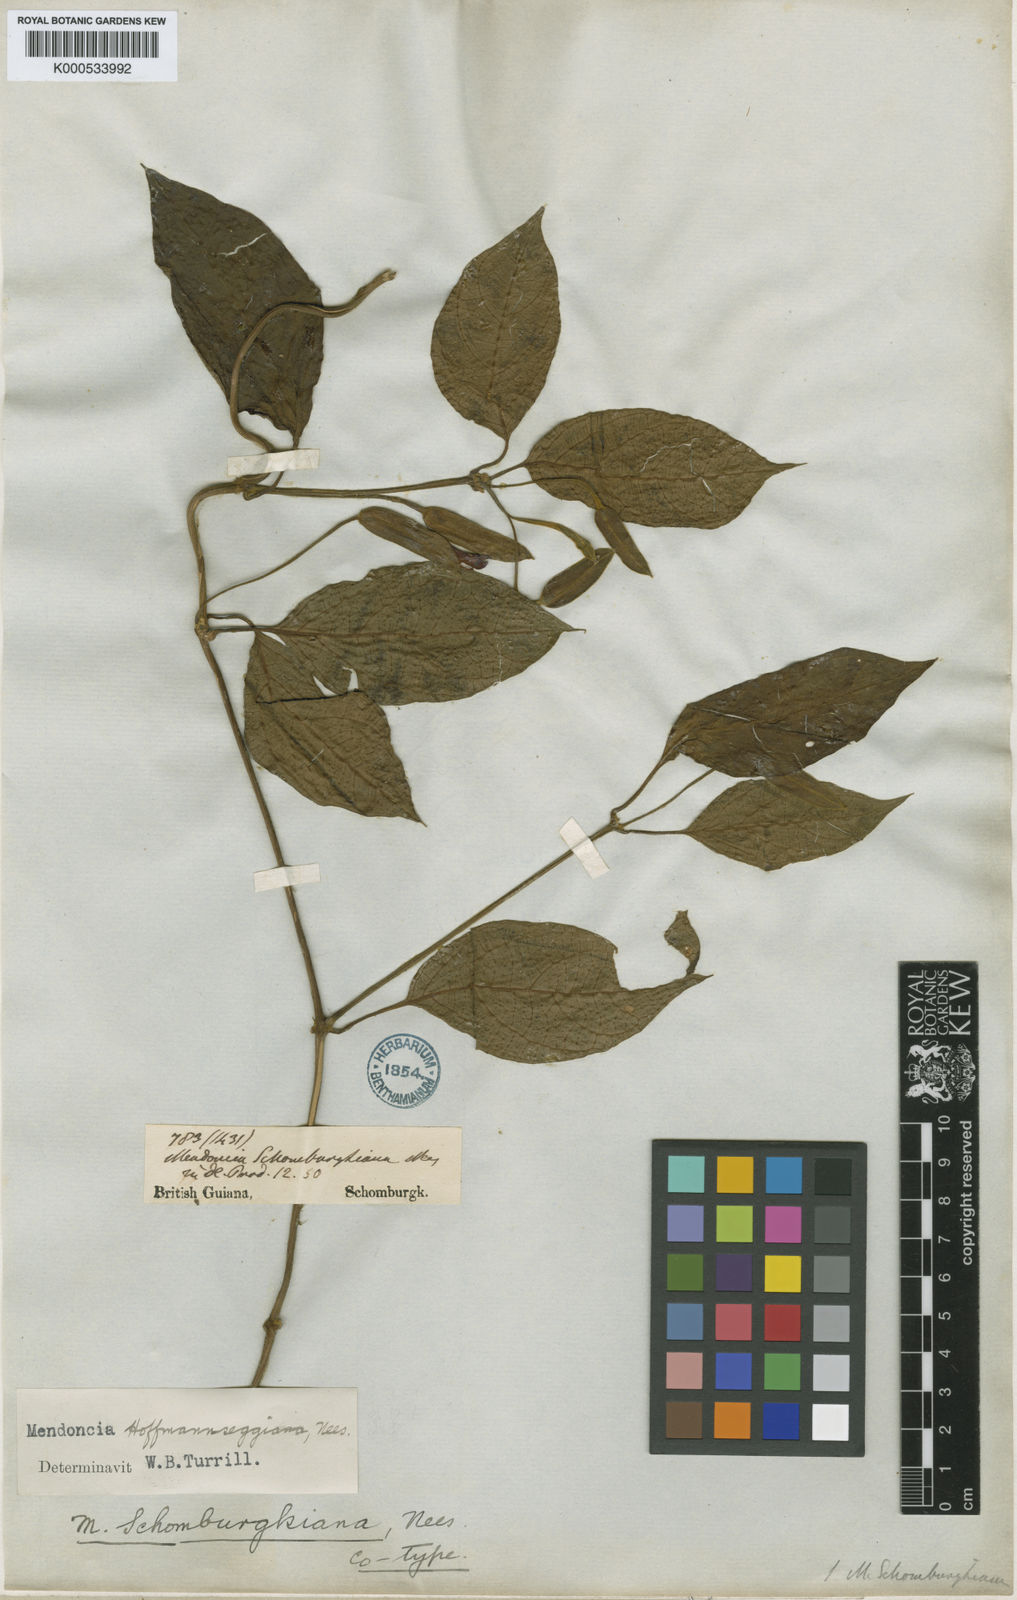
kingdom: Plantae
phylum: Tracheophyta
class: Magnoliopsida
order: Lamiales
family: Acanthaceae
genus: Mendoncia
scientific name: Mendoncia hoffmannseggiana
